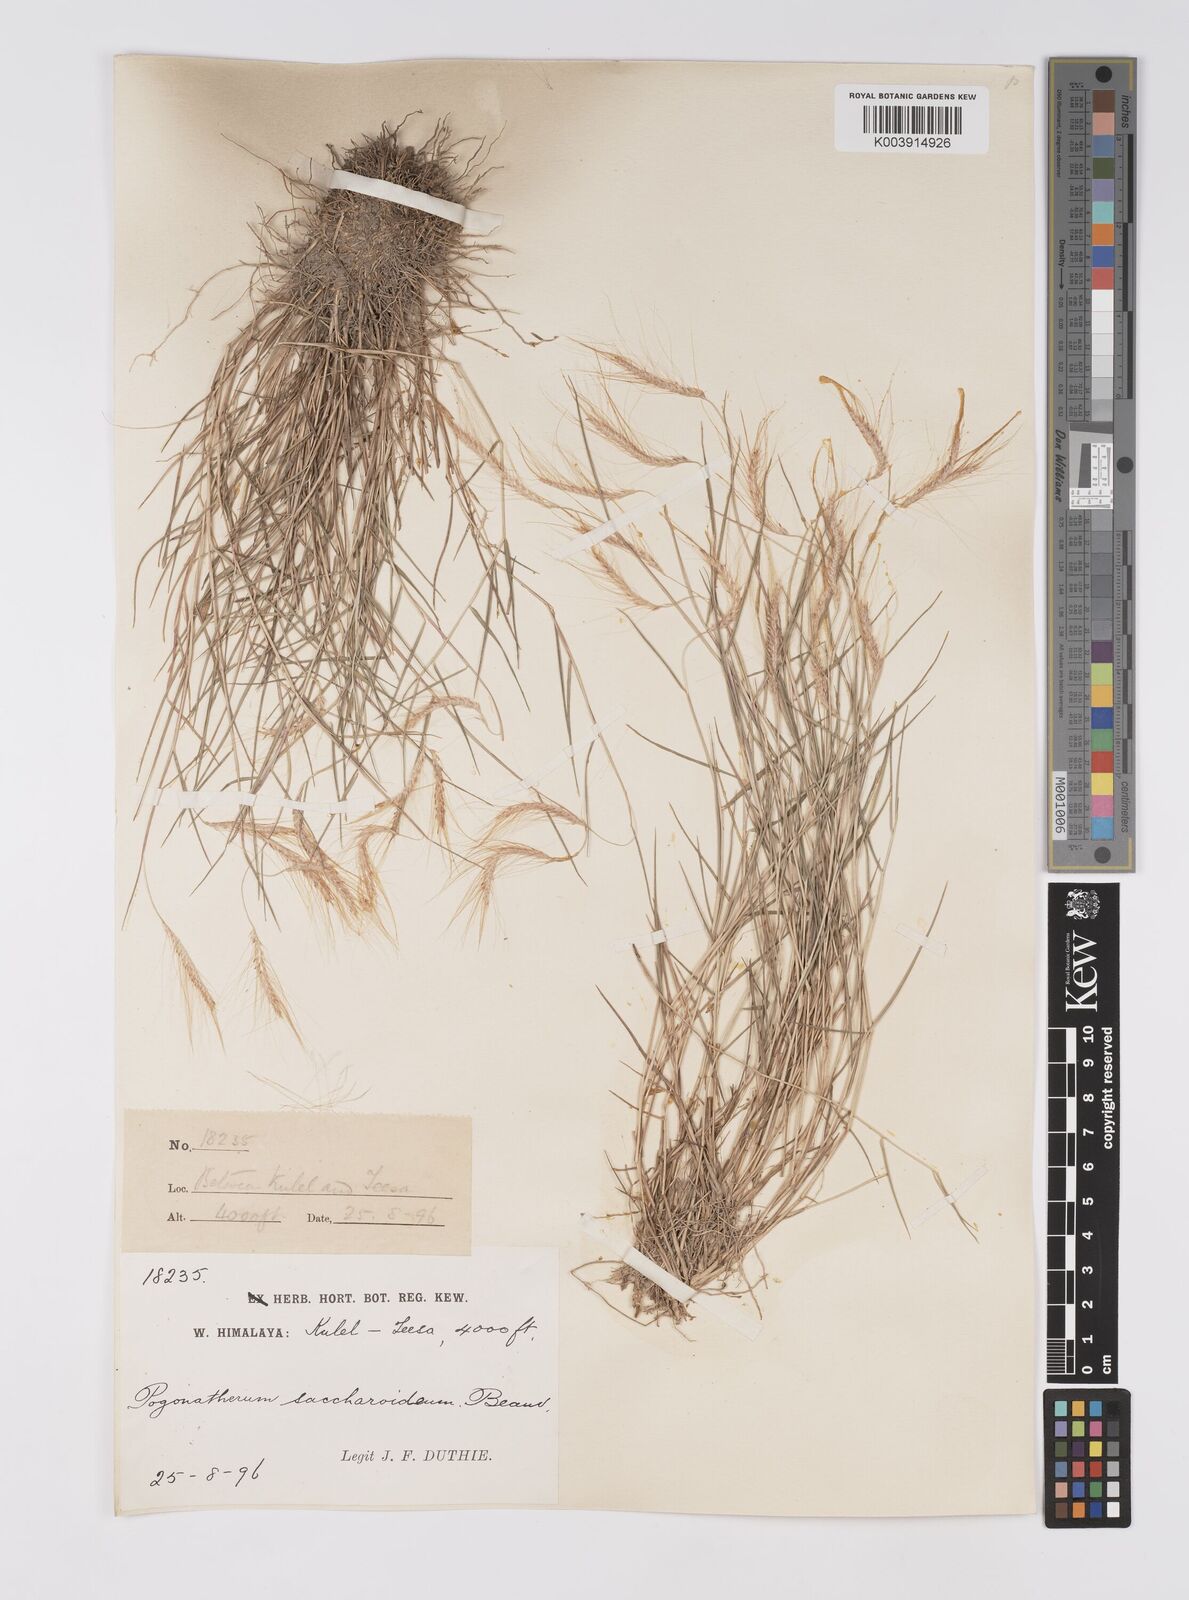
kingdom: Plantae
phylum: Tracheophyta
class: Liliopsida
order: Poales
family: Poaceae
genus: Pogonatherum
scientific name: Pogonatherum paniceum
